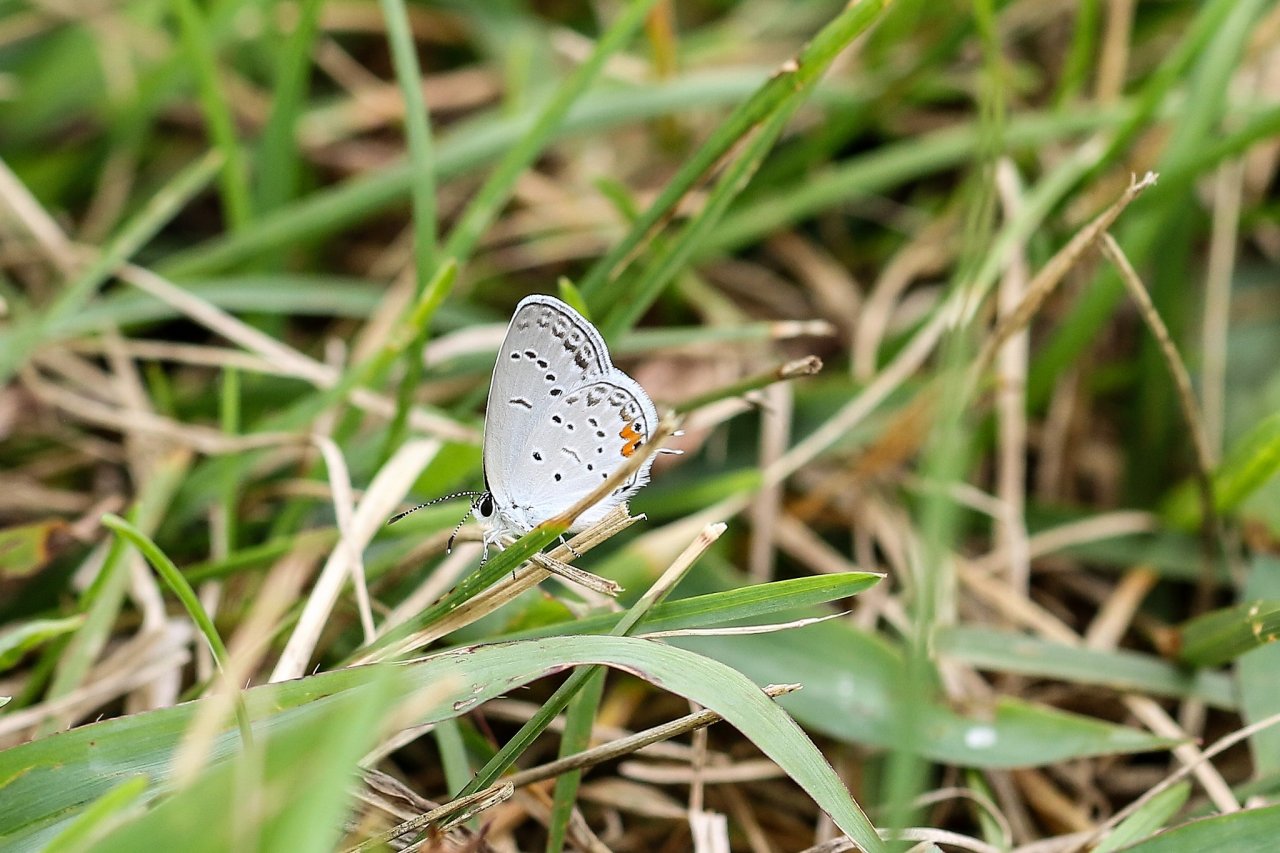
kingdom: Animalia
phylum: Arthropoda
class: Insecta
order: Lepidoptera
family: Lycaenidae
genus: Elkalyce
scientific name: Elkalyce comyntas
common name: Eastern Tailed-Blue
